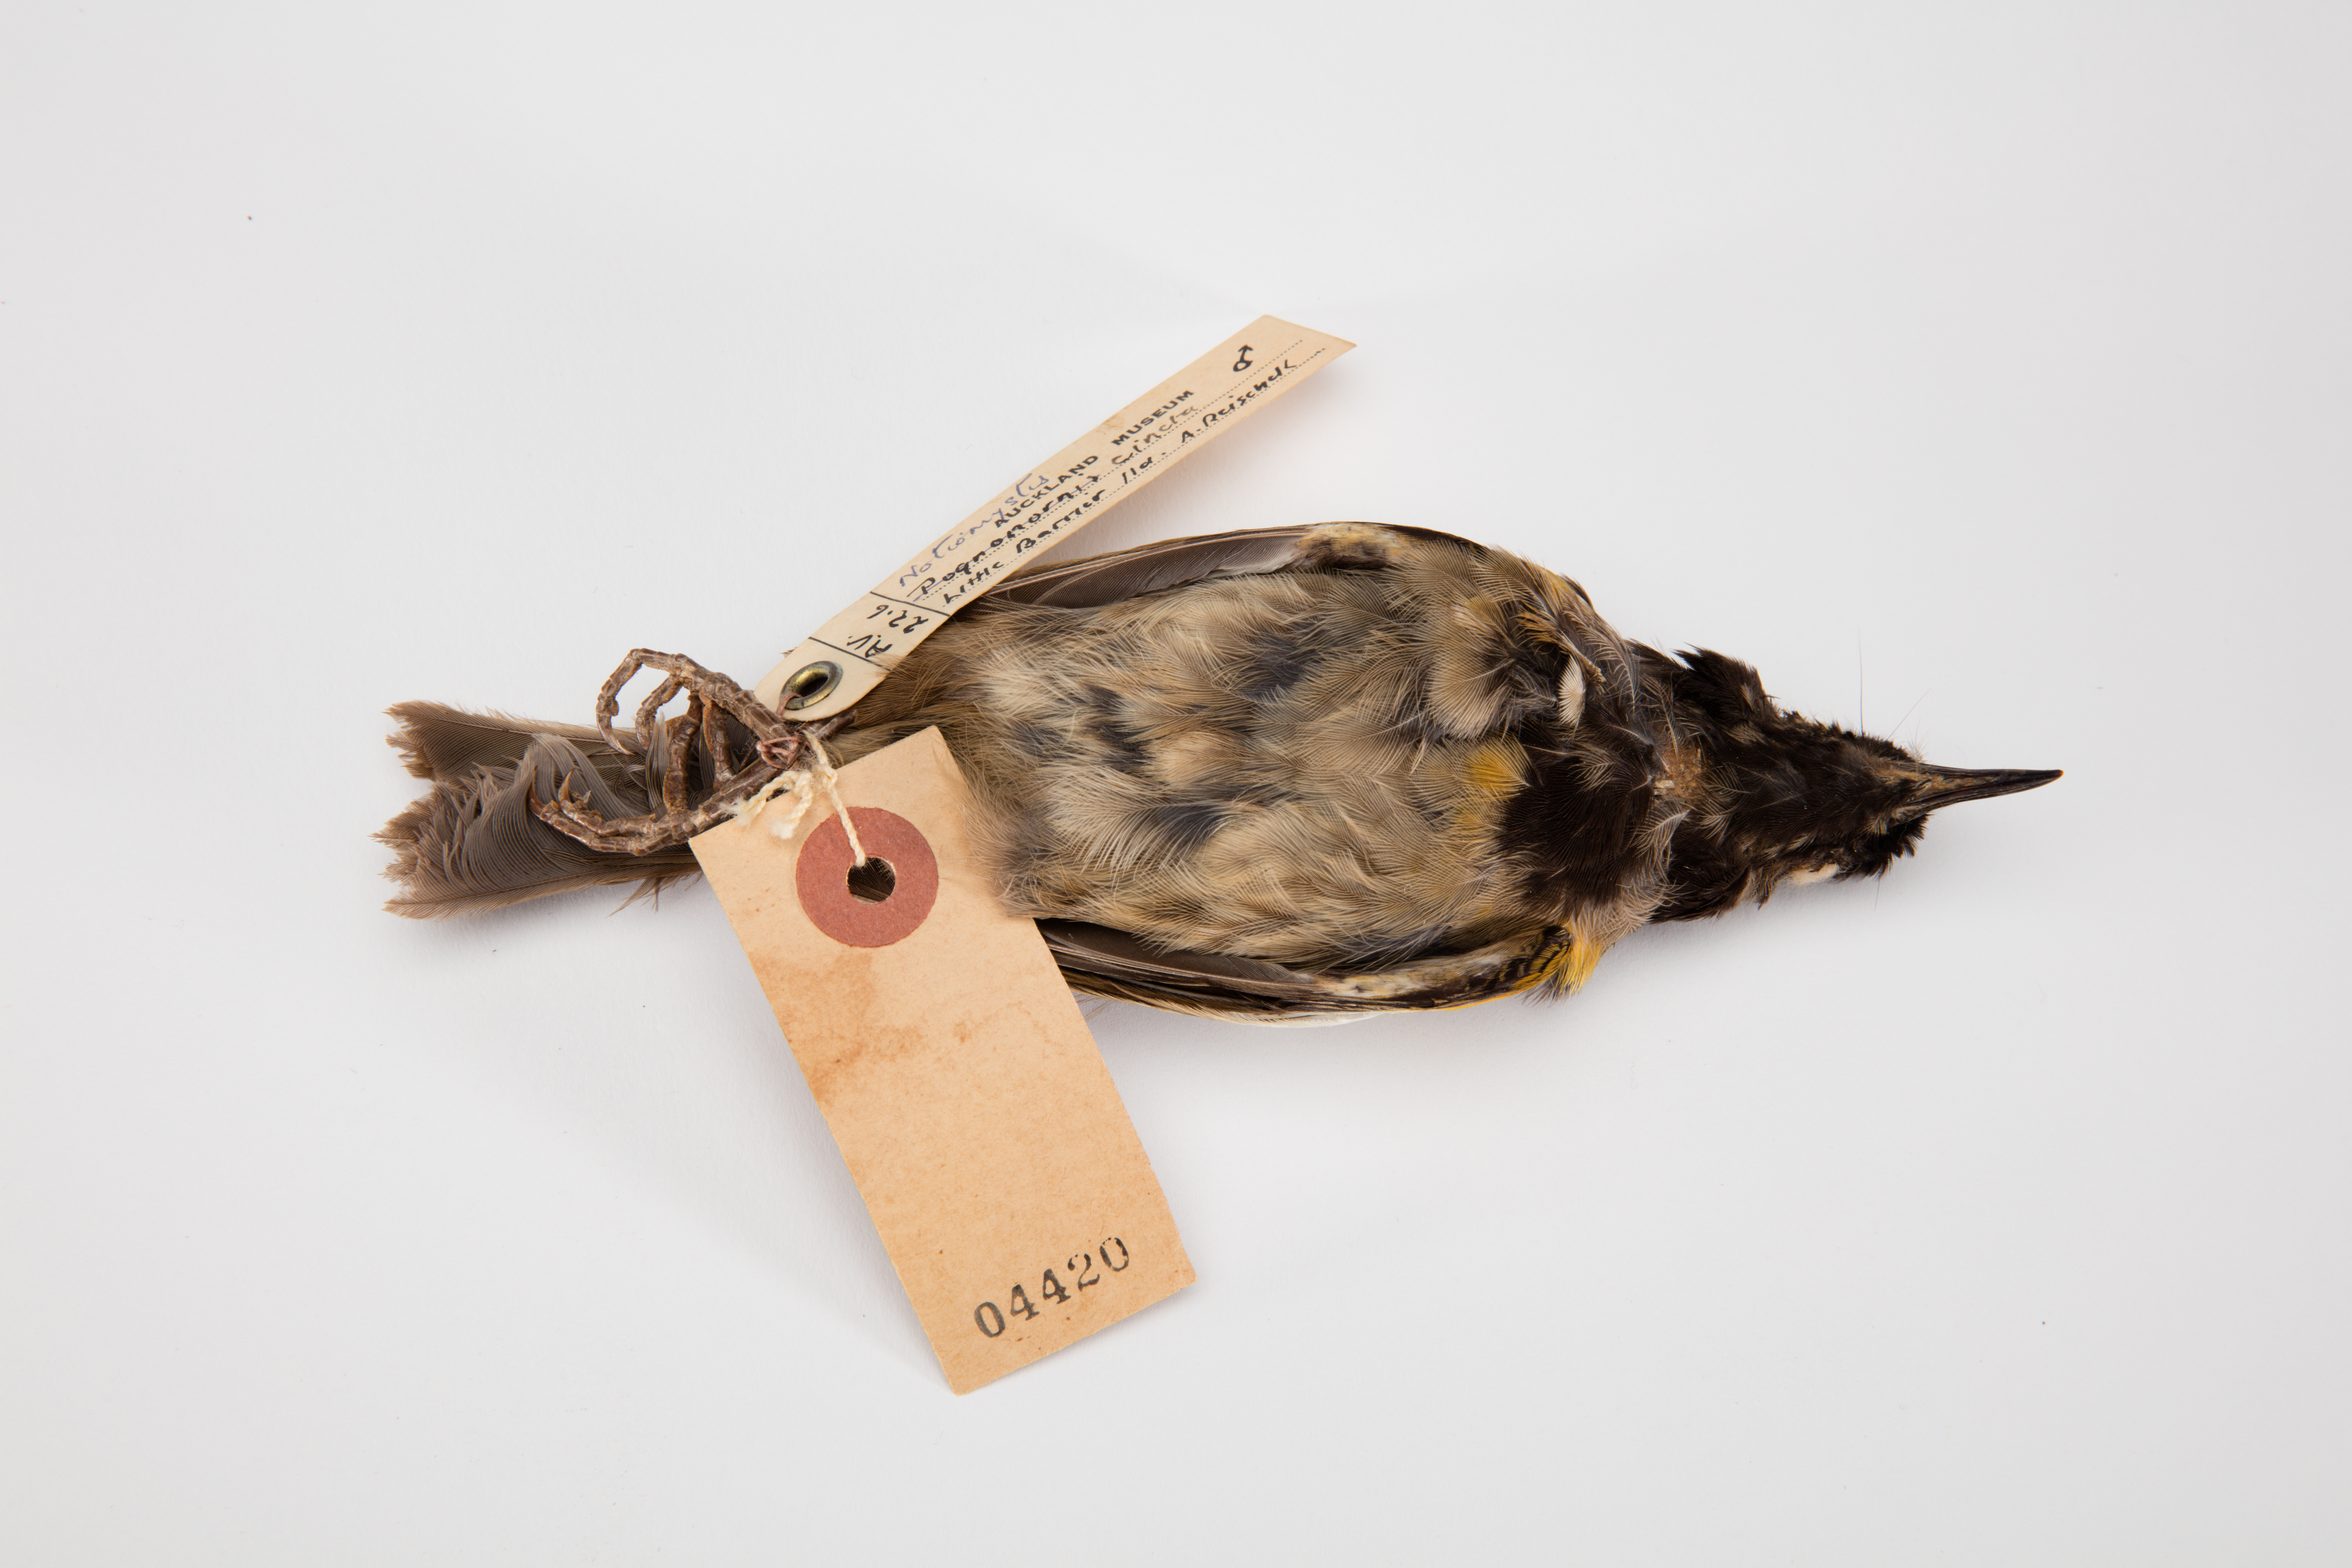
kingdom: Animalia
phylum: Chordata
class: Aves
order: Passeriformes
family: Notiomystidae
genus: Notiomystis
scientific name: Notiomystis cincta
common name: Stitchbird
